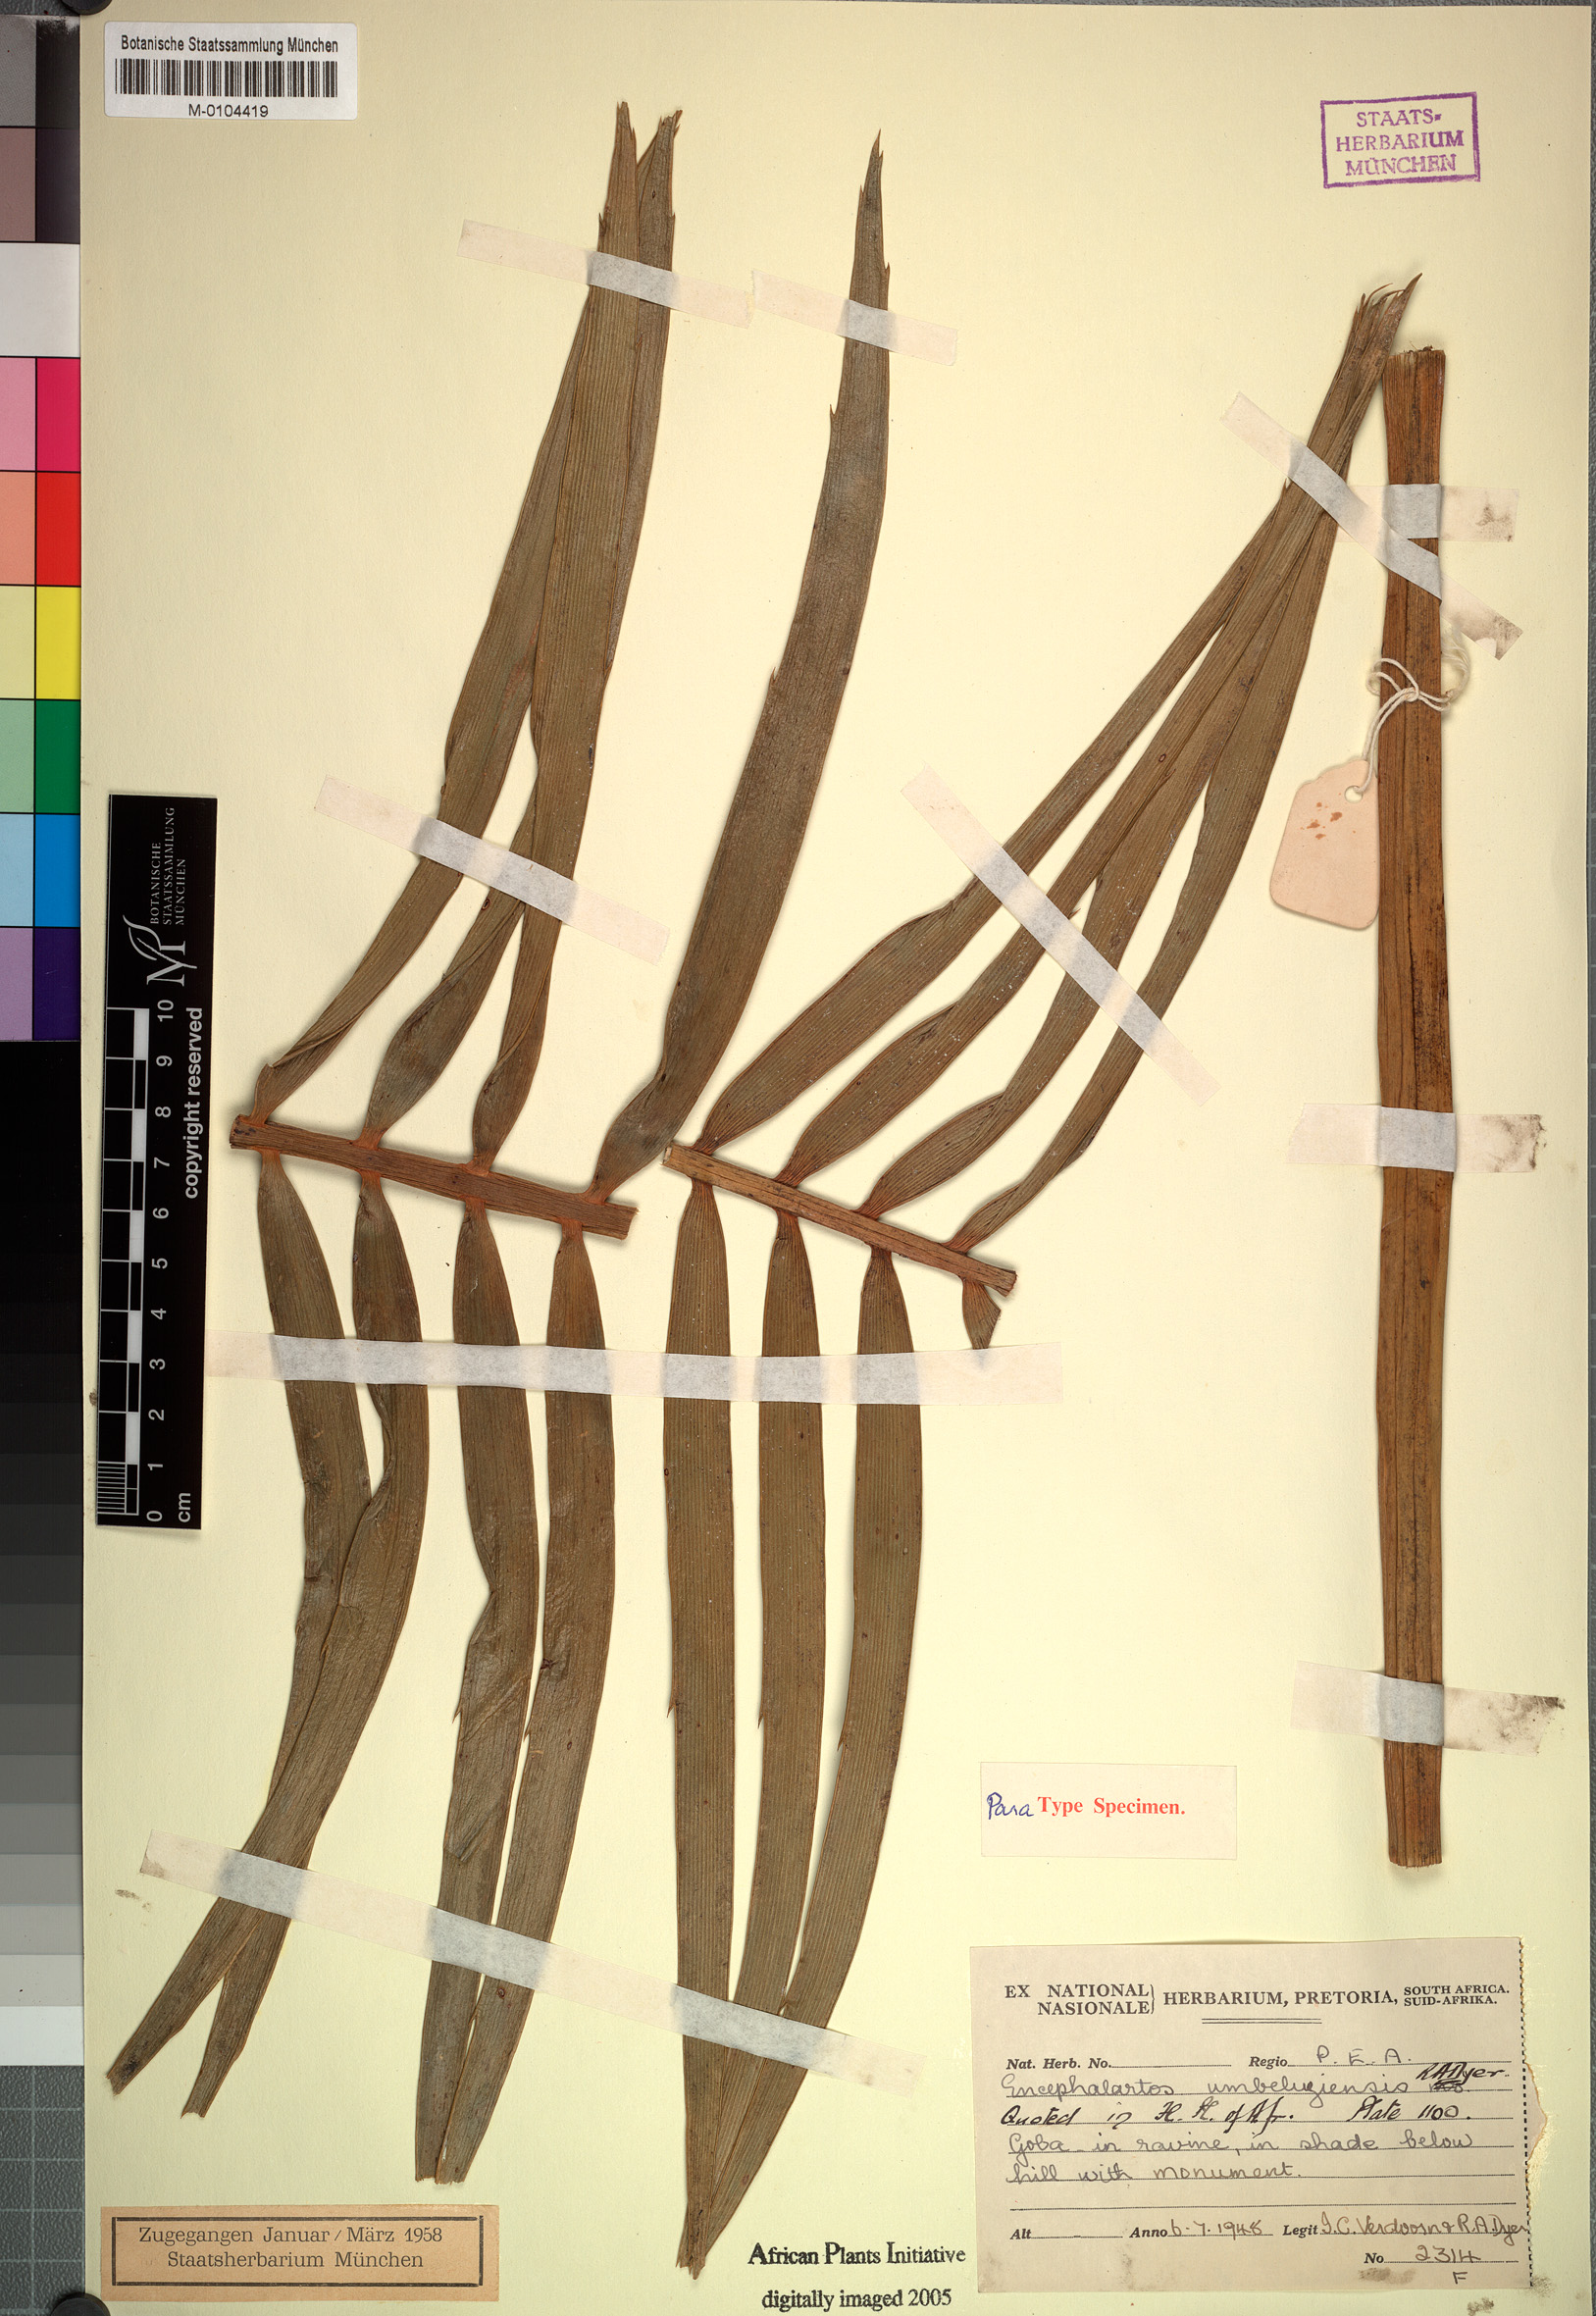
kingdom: Plantae
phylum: Tracheophyta
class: Cycadopsida
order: Cycadales
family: Zamiaceae
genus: Encephalartos
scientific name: Encephalartos umbeluziensis
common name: Umbeluzi cycad
